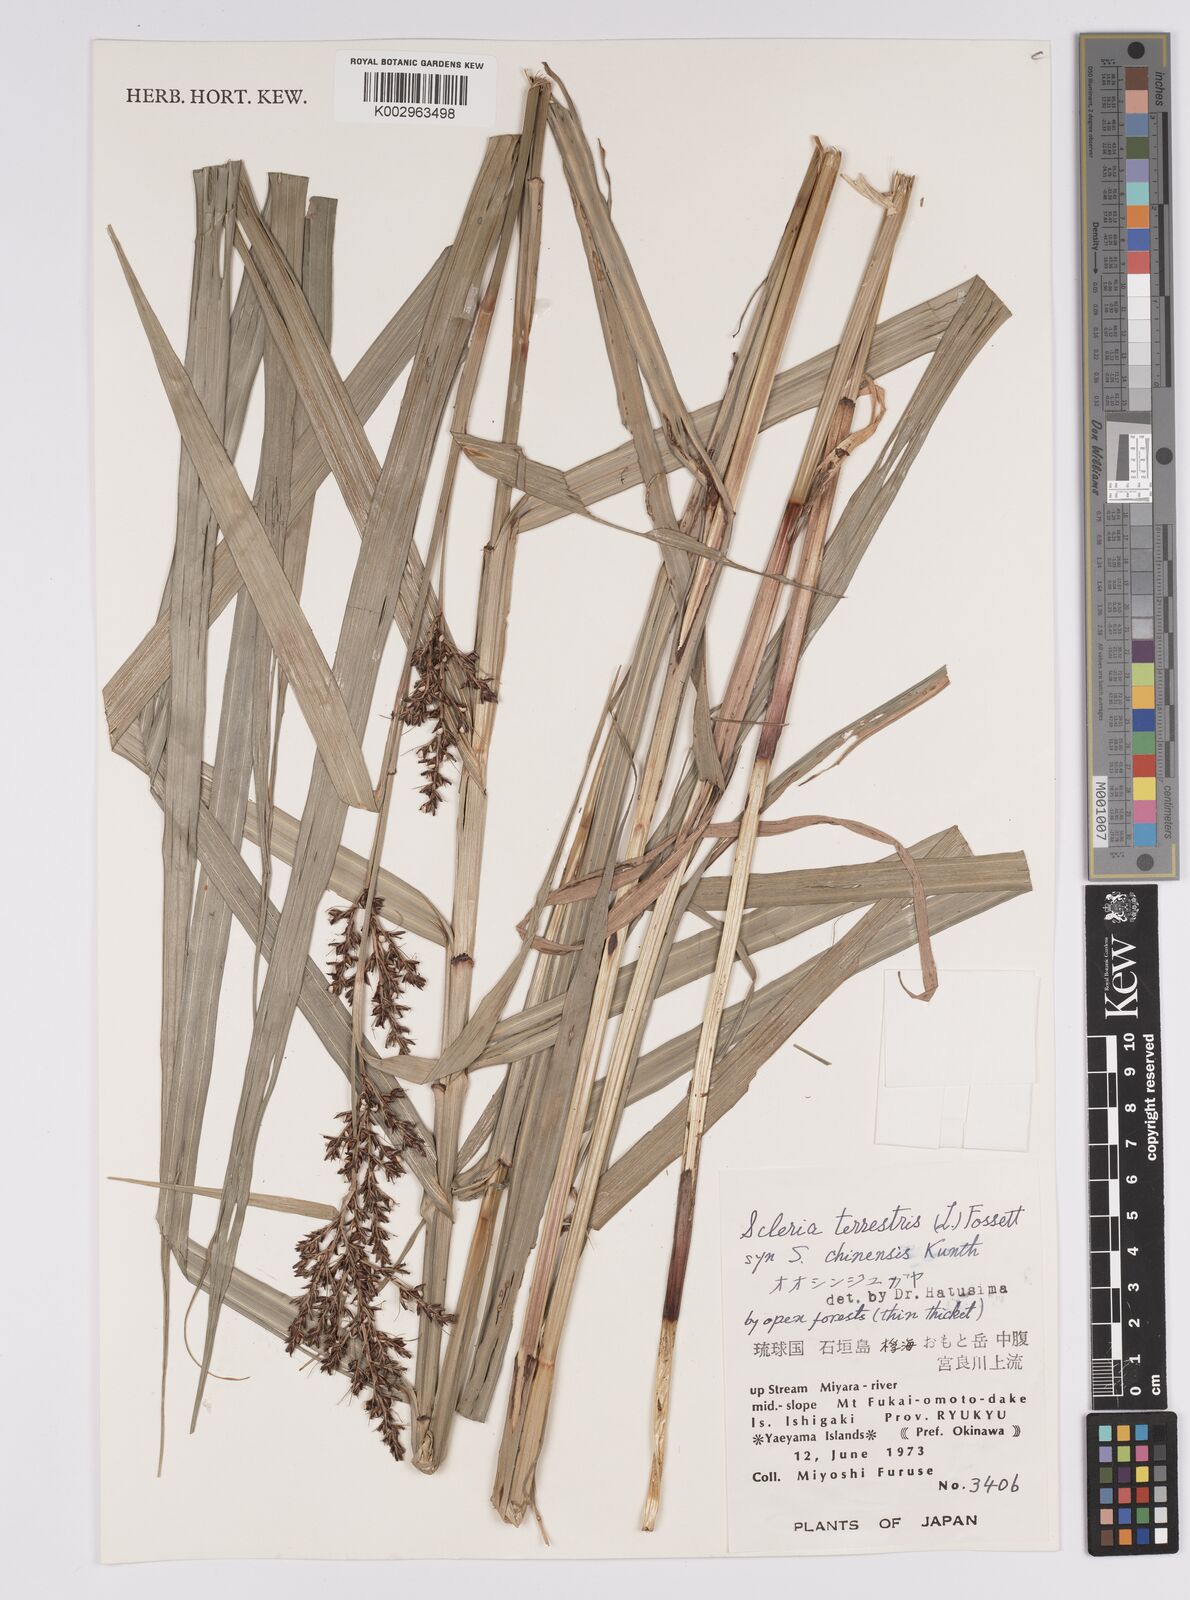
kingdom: Plantae
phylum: Tracheophyta
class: Liliopsida
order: Poales
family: Cyperaceae
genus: Scleria
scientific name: Scleria terrestris
